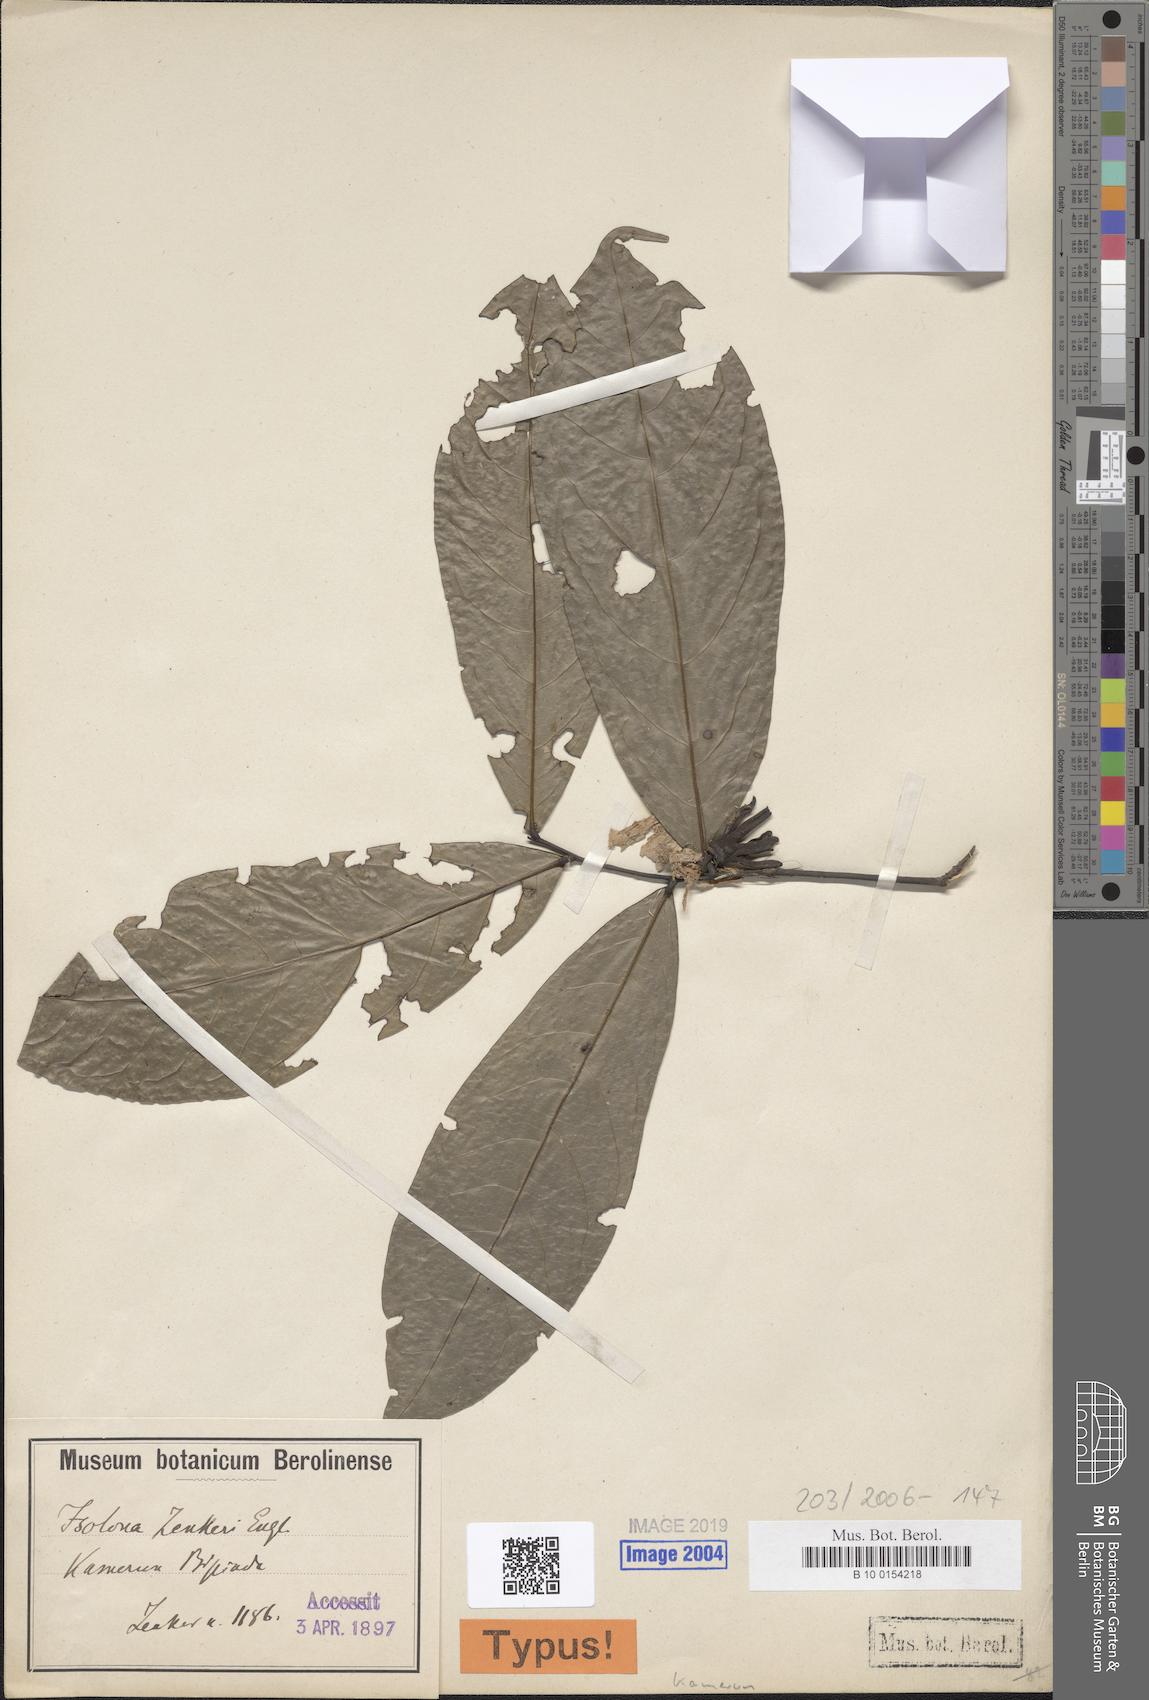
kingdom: Plantae
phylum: Tracheophyta
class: Magnoliopsida
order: Magnoliales
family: Annonaceae
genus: Isolona
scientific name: Isolona zenkeri
